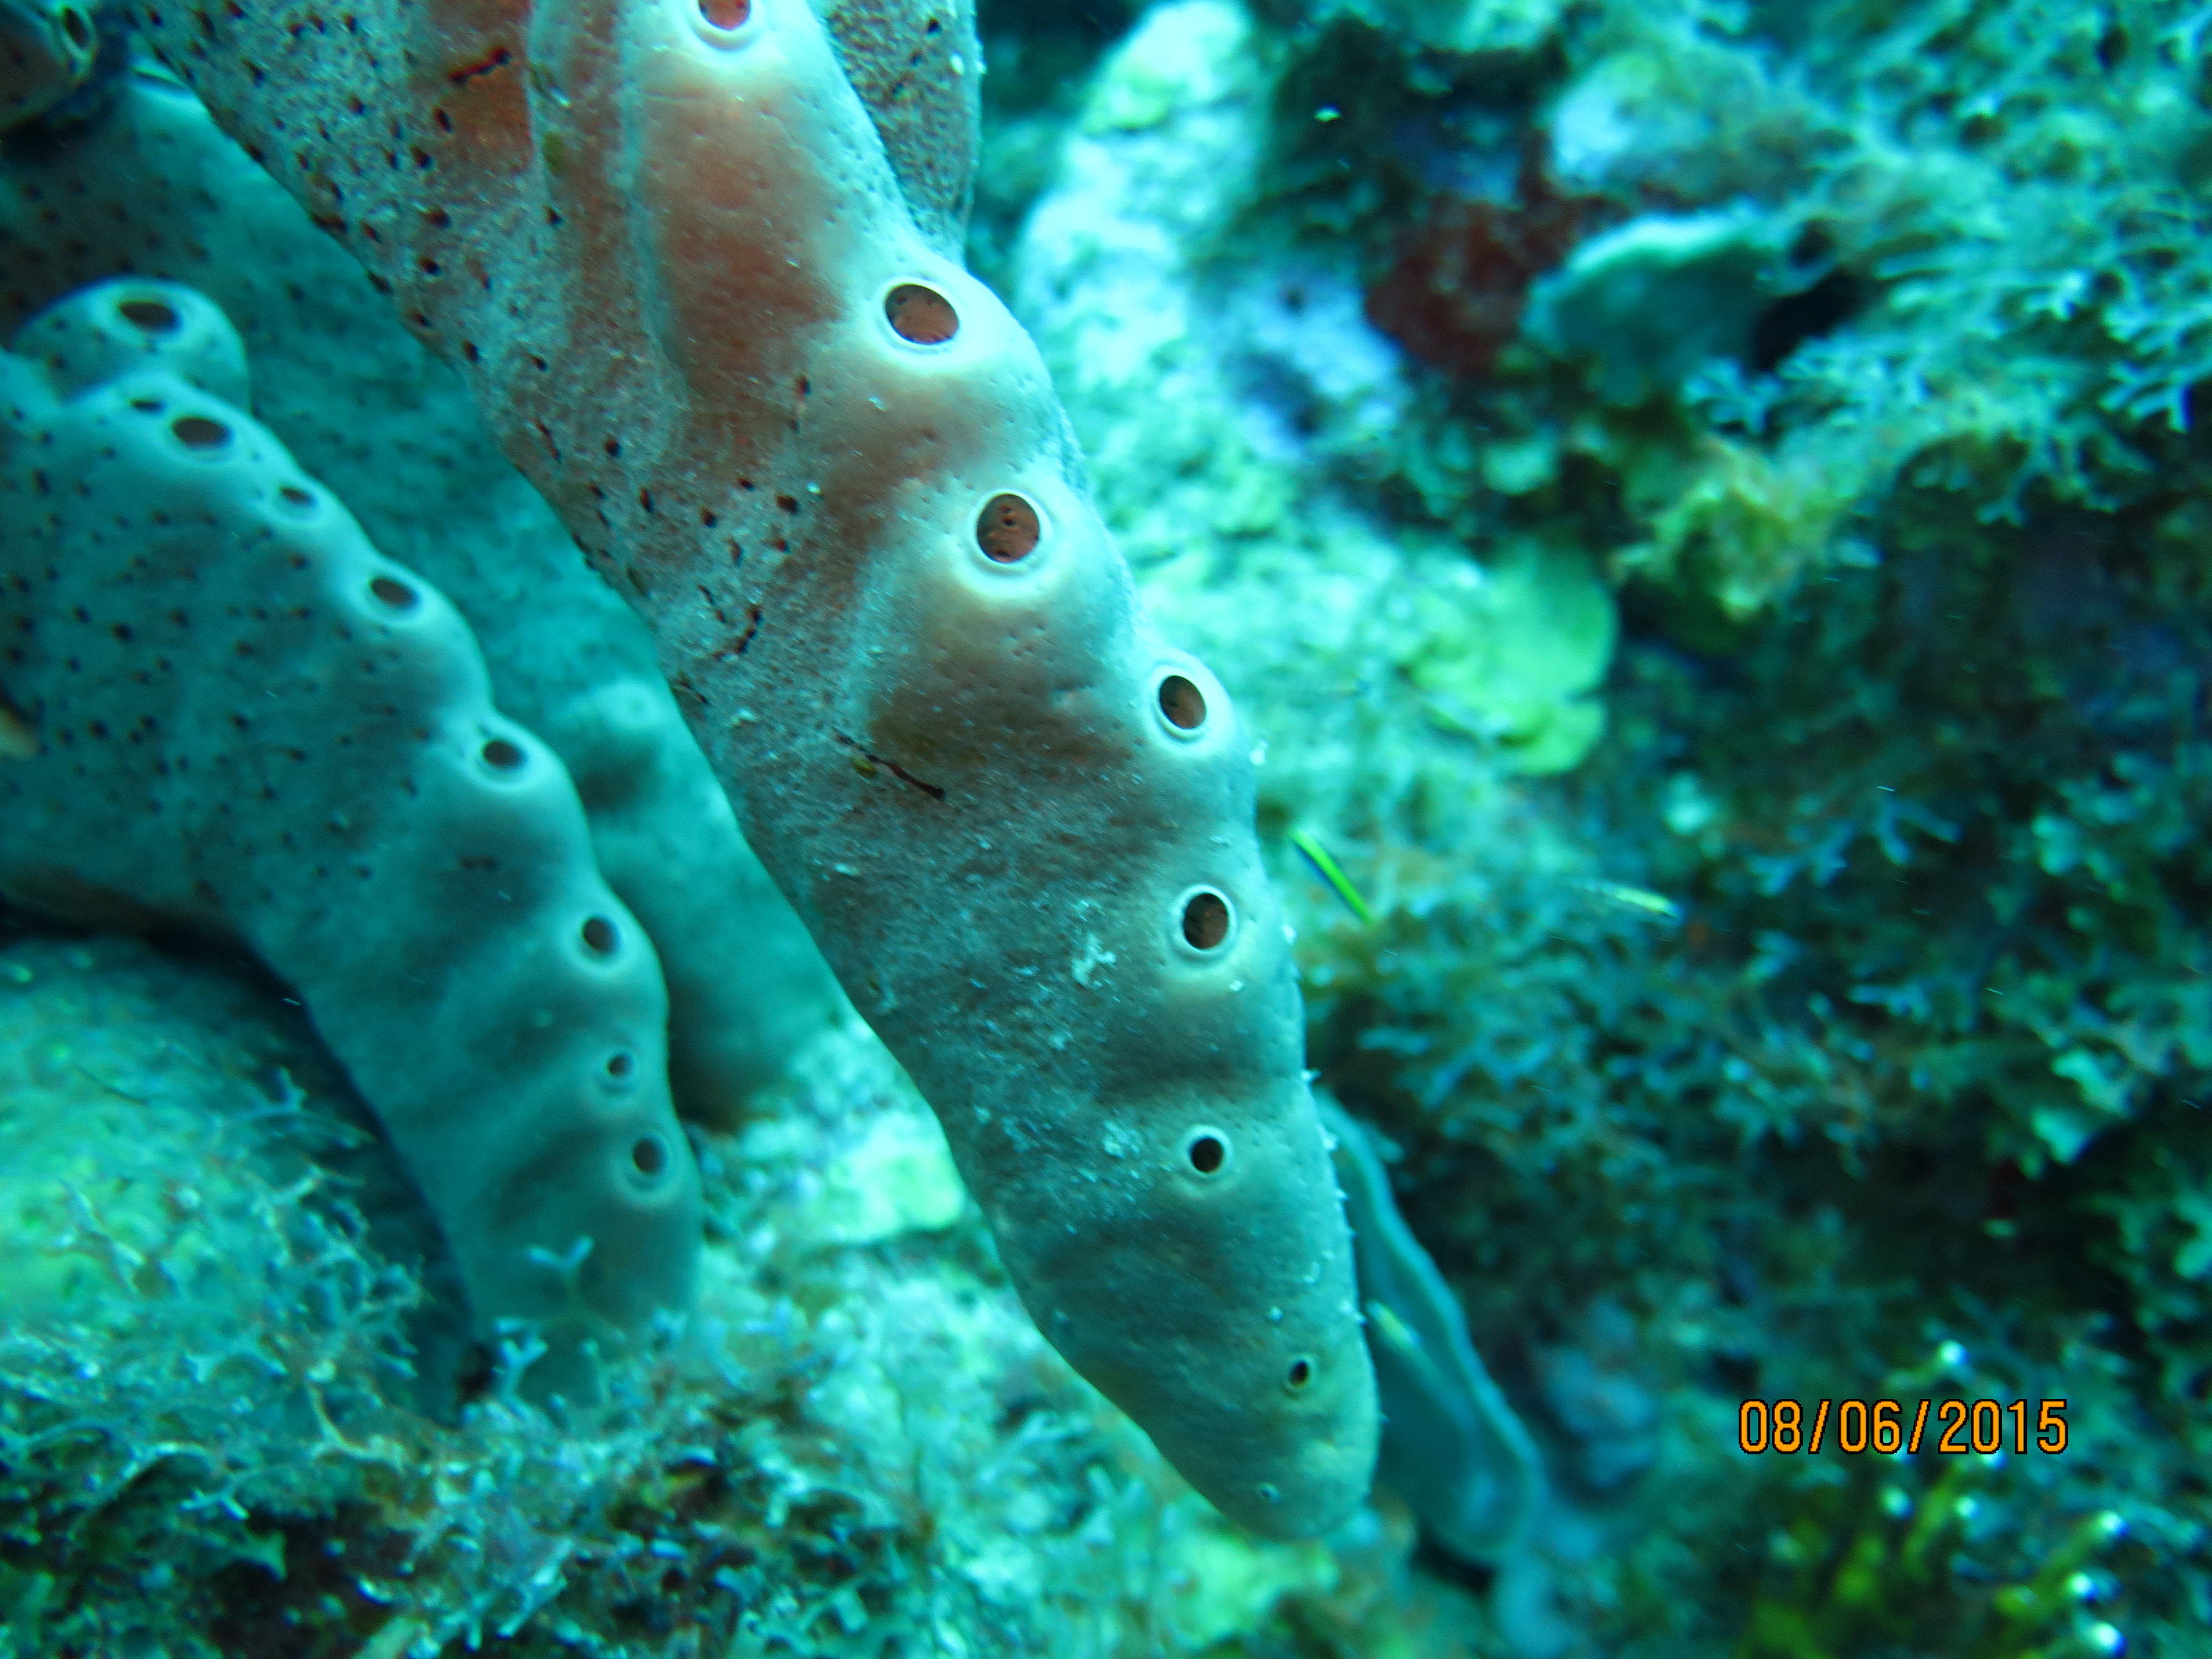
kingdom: Animalia
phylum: Porifera
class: Demospongiae
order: Agelasida
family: Agelasidae
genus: Agelas
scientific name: Agelas conifera
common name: Brown tube sponge
